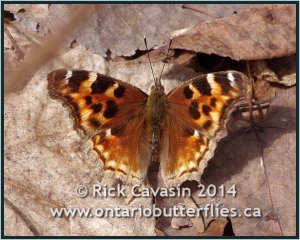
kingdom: Animalia
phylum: Arthropoda
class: Insecta
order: Lepidoptera
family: Nymphalidae
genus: Polygonia
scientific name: Polygonia vaualbum
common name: Compton Tortoiseshell
